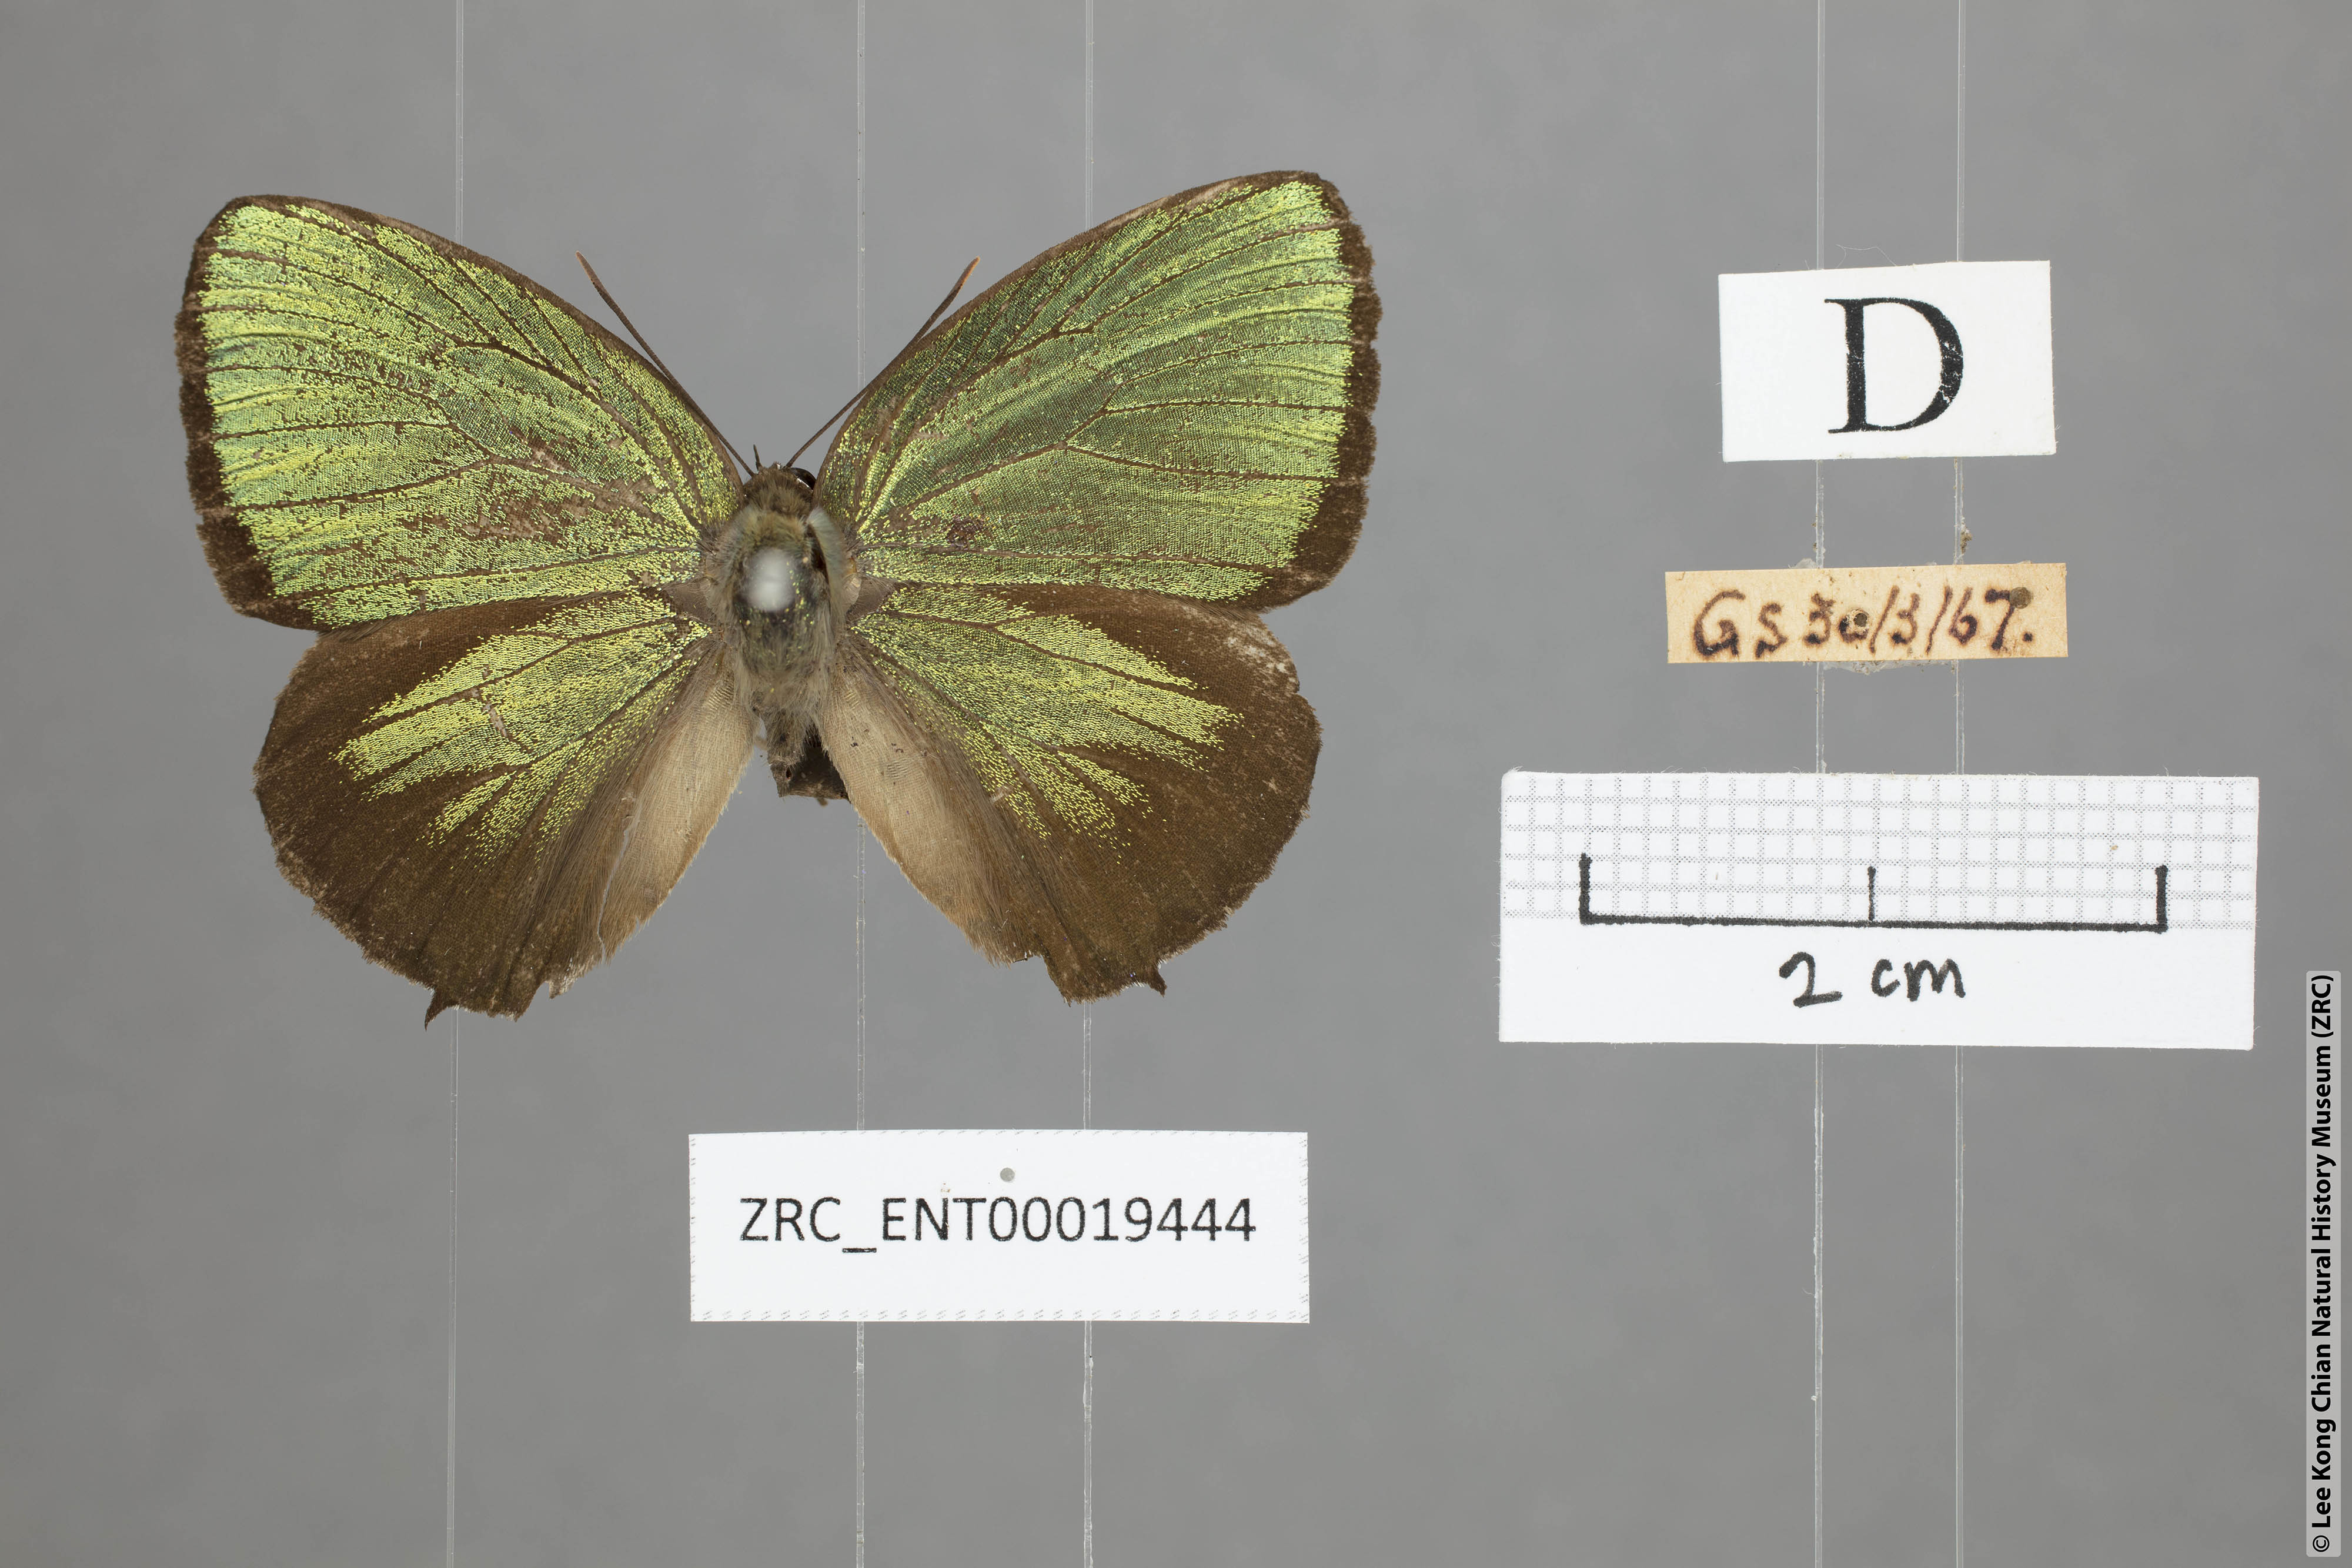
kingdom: Animalia
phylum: Arthropoda
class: Insecta
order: Lepidoptera
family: Lycaenidae
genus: Arhopala
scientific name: Arhopala eumolphus
